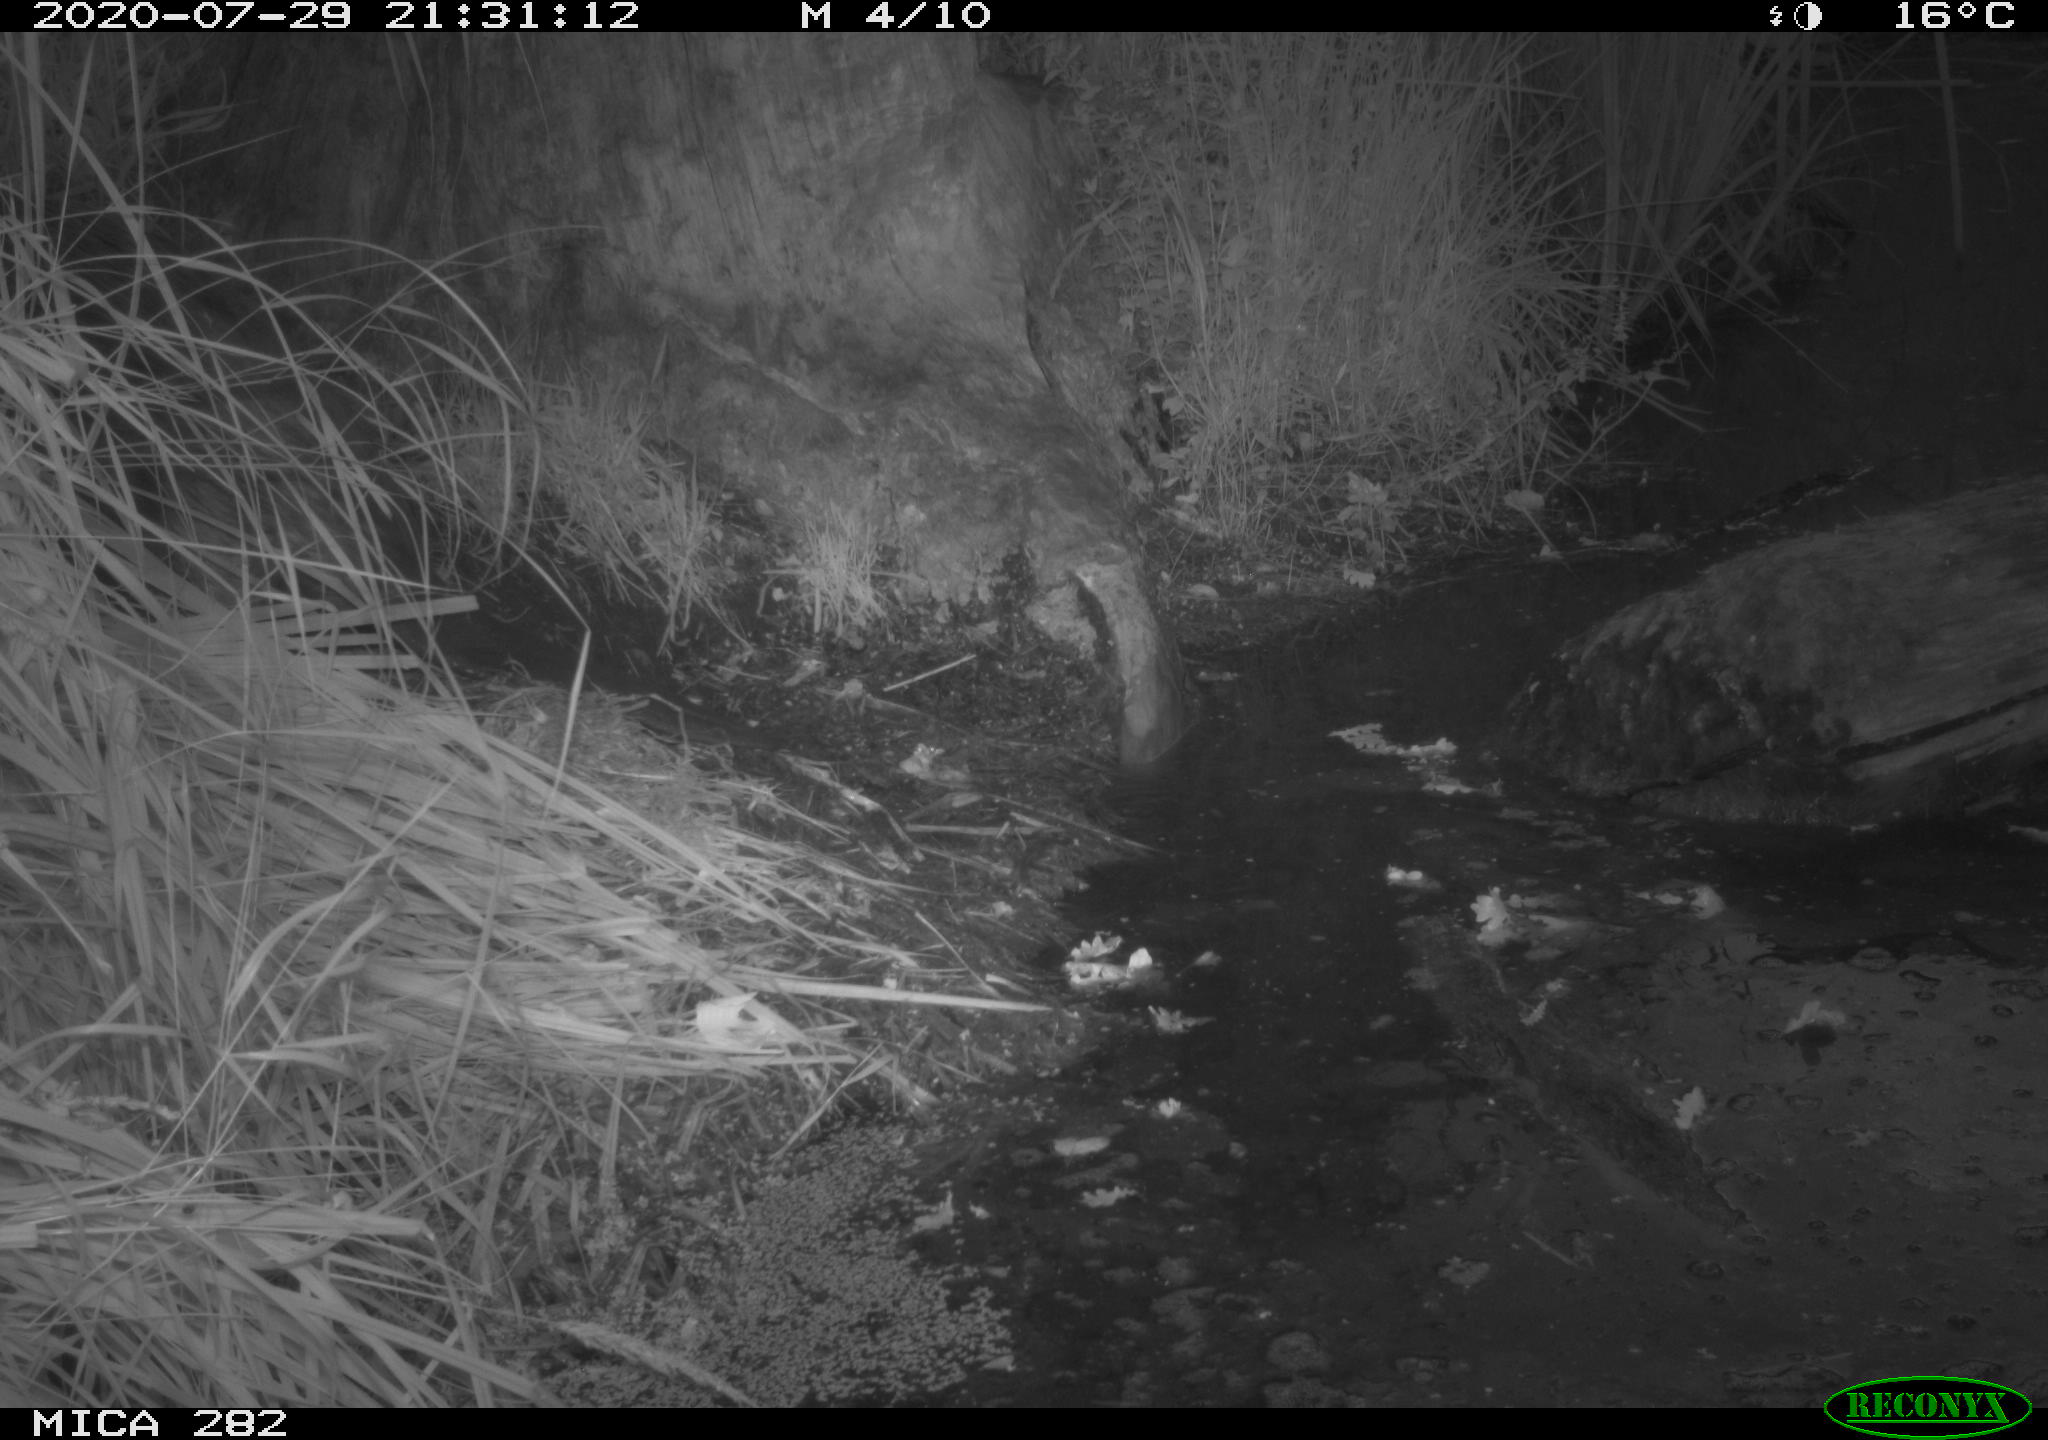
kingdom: Animalia
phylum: Chordata
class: Mammalia
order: Rodentia
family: Castoridae
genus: Castor
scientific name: Castor fiber
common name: Eurasian beaver
